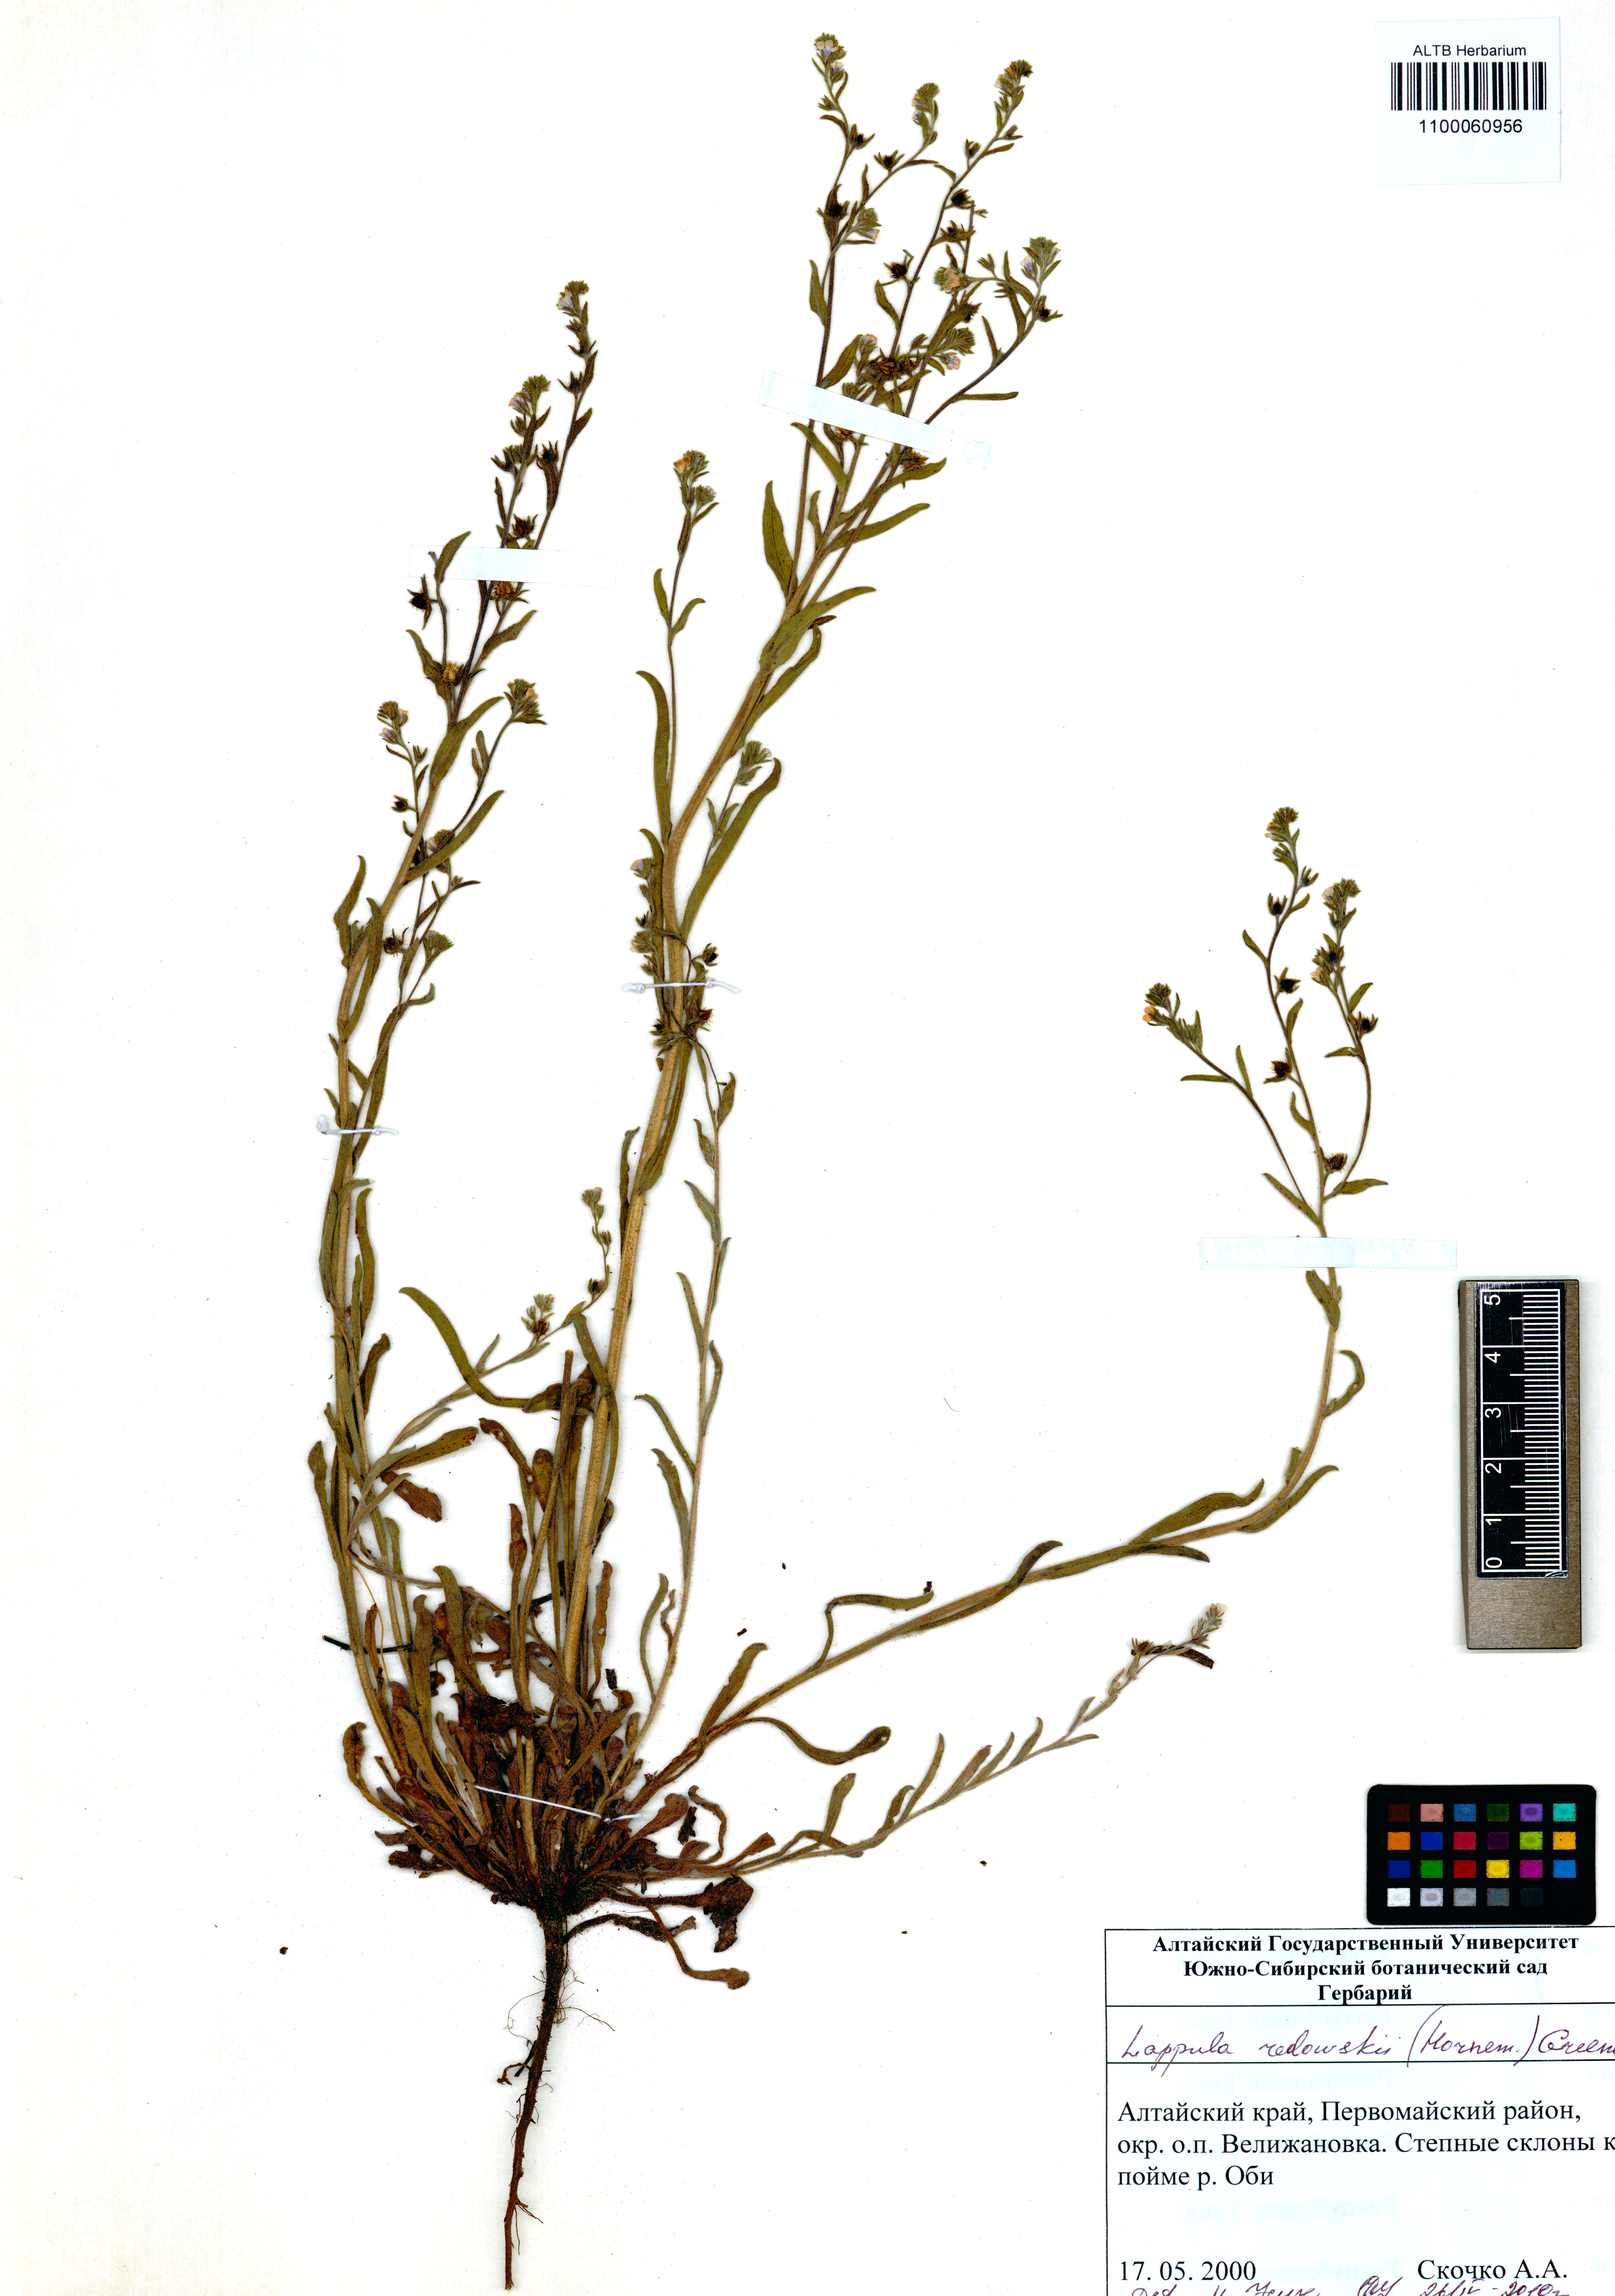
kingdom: Plantae
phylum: Tracheophyta
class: Magnoliopsida
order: Boraginales
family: Boraginaceae
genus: Lappula
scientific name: Lappula redowskii
